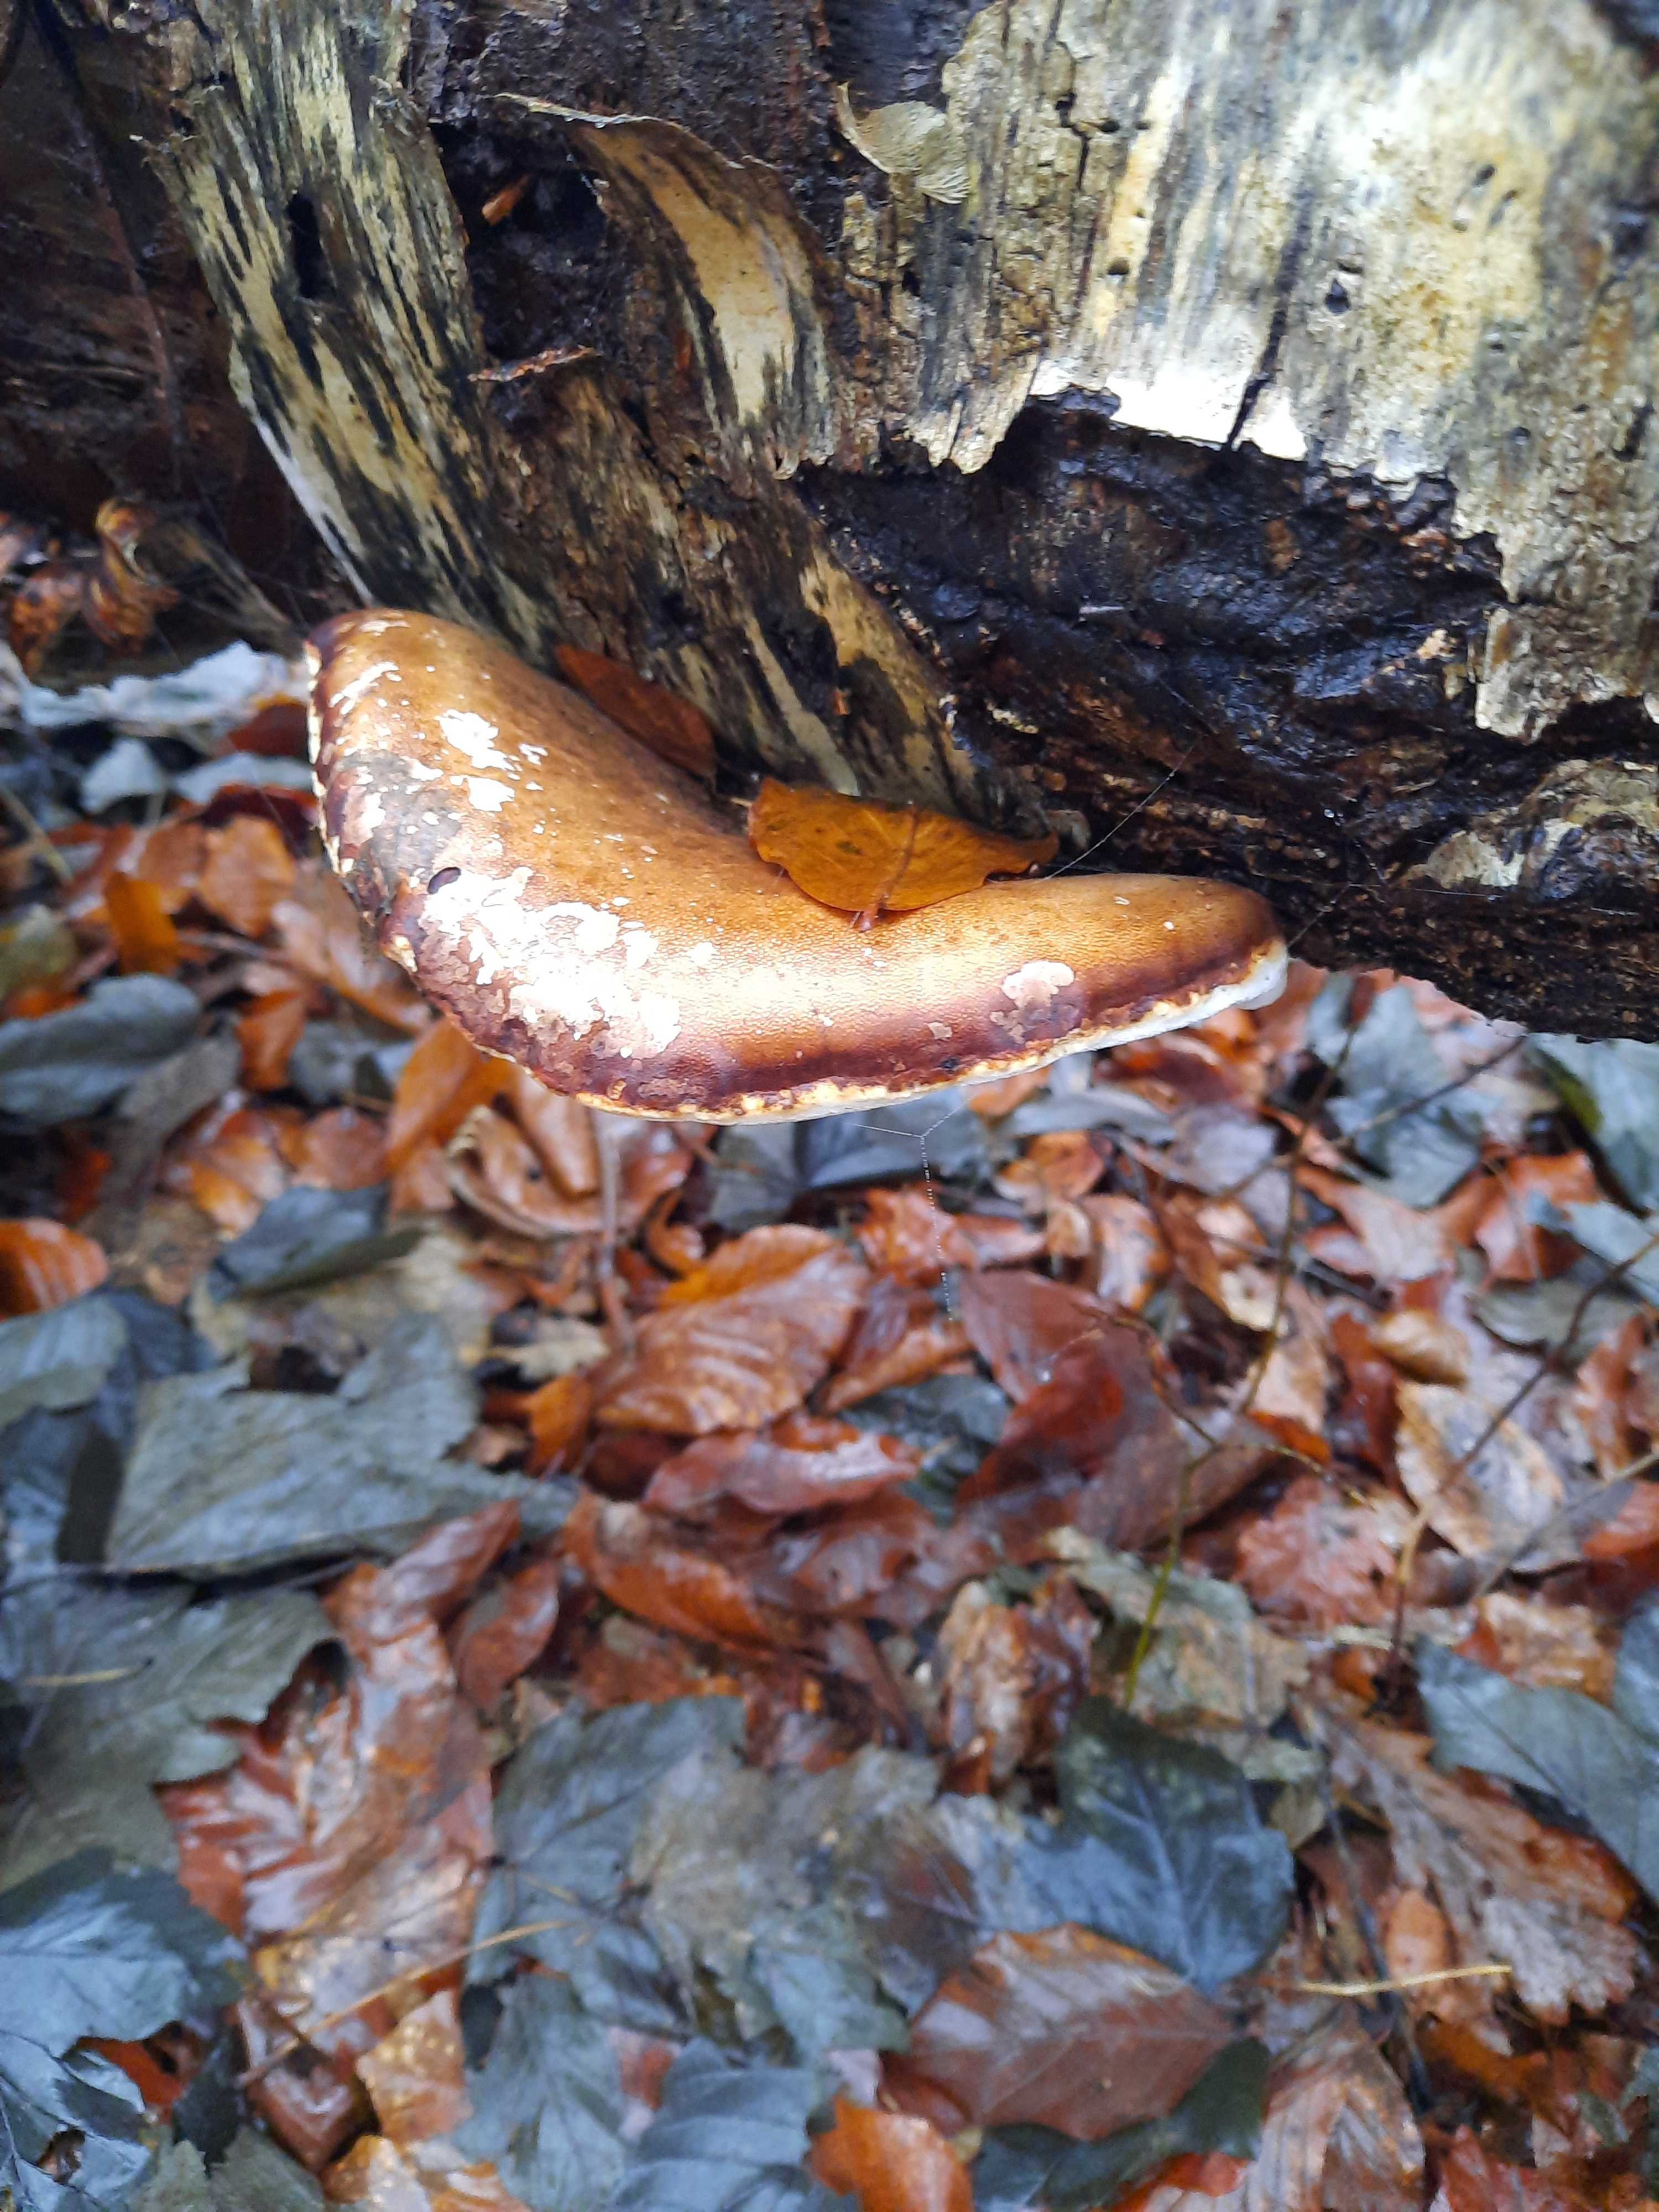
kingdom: Fungi
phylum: Basidiomycota
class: Agaricomycetes
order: Polyporales
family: Fomitopsidaceae
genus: Fomitopsis
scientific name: Fomitopsis betulina
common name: birkeporesvamp
